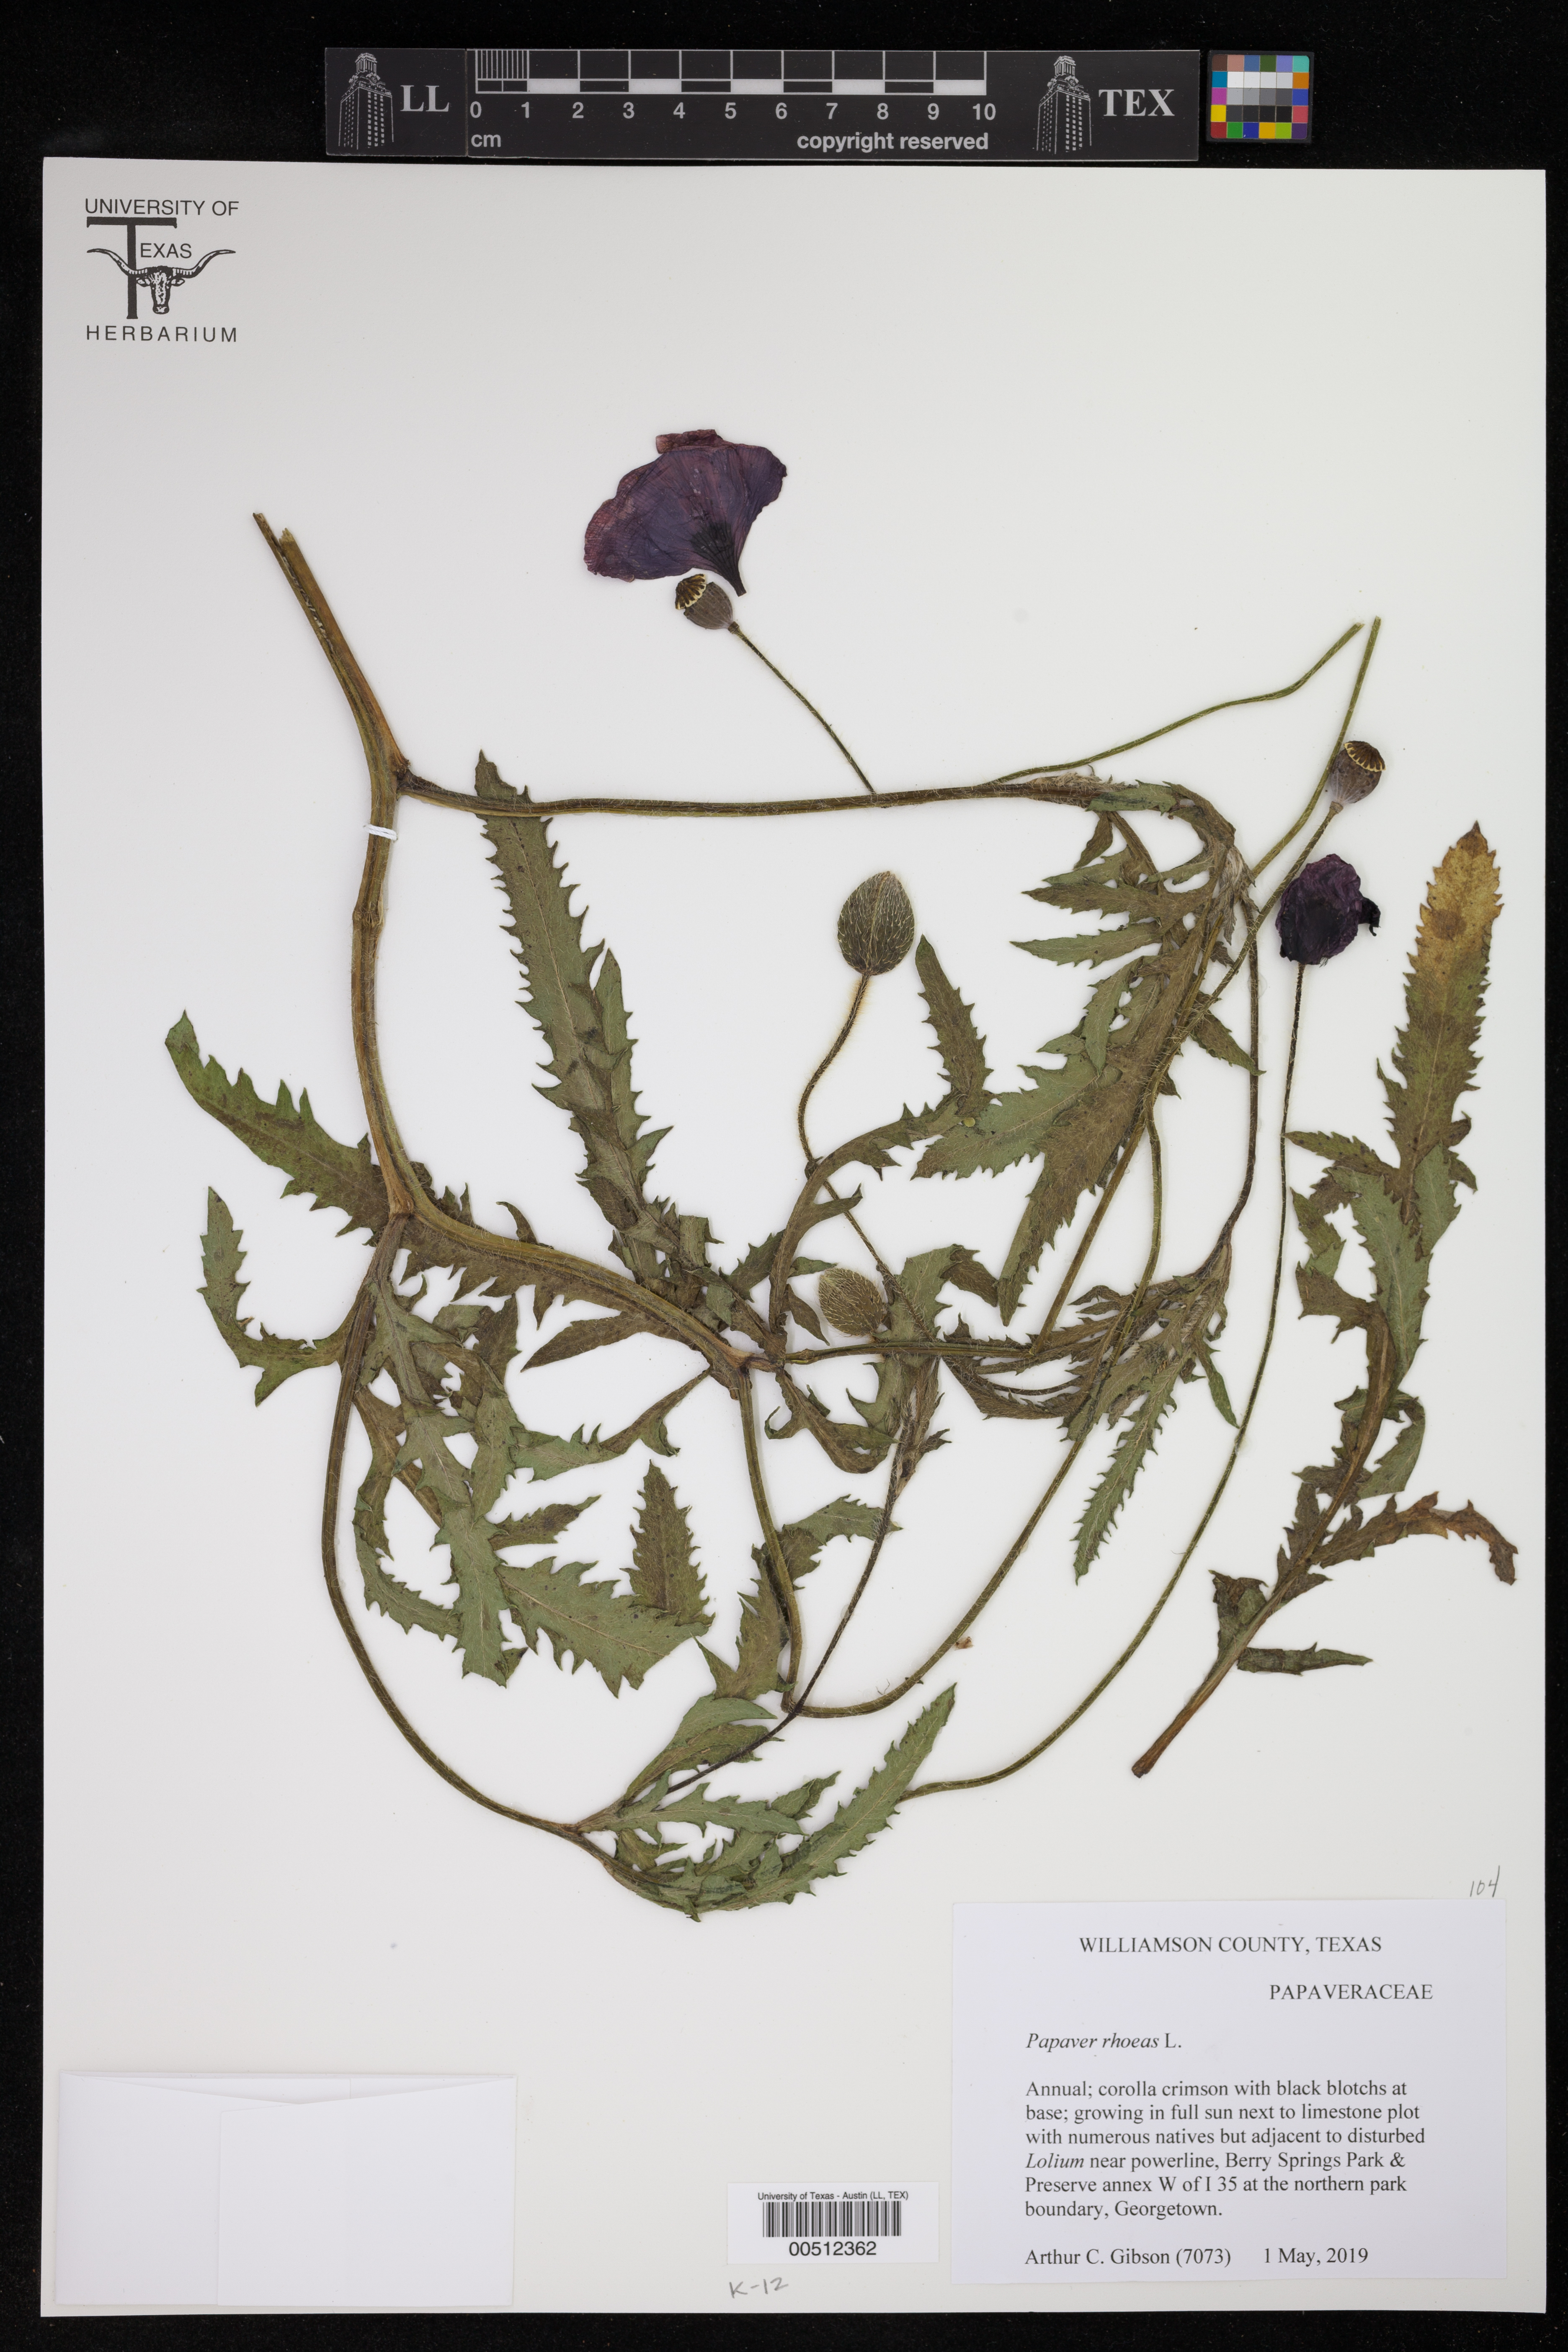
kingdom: Plantae
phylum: Tracheophyta
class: Magnoliopsida
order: Ranunculales
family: Papaveraceae
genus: Papaver
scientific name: Papaver rhoeas
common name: Corn poppy
